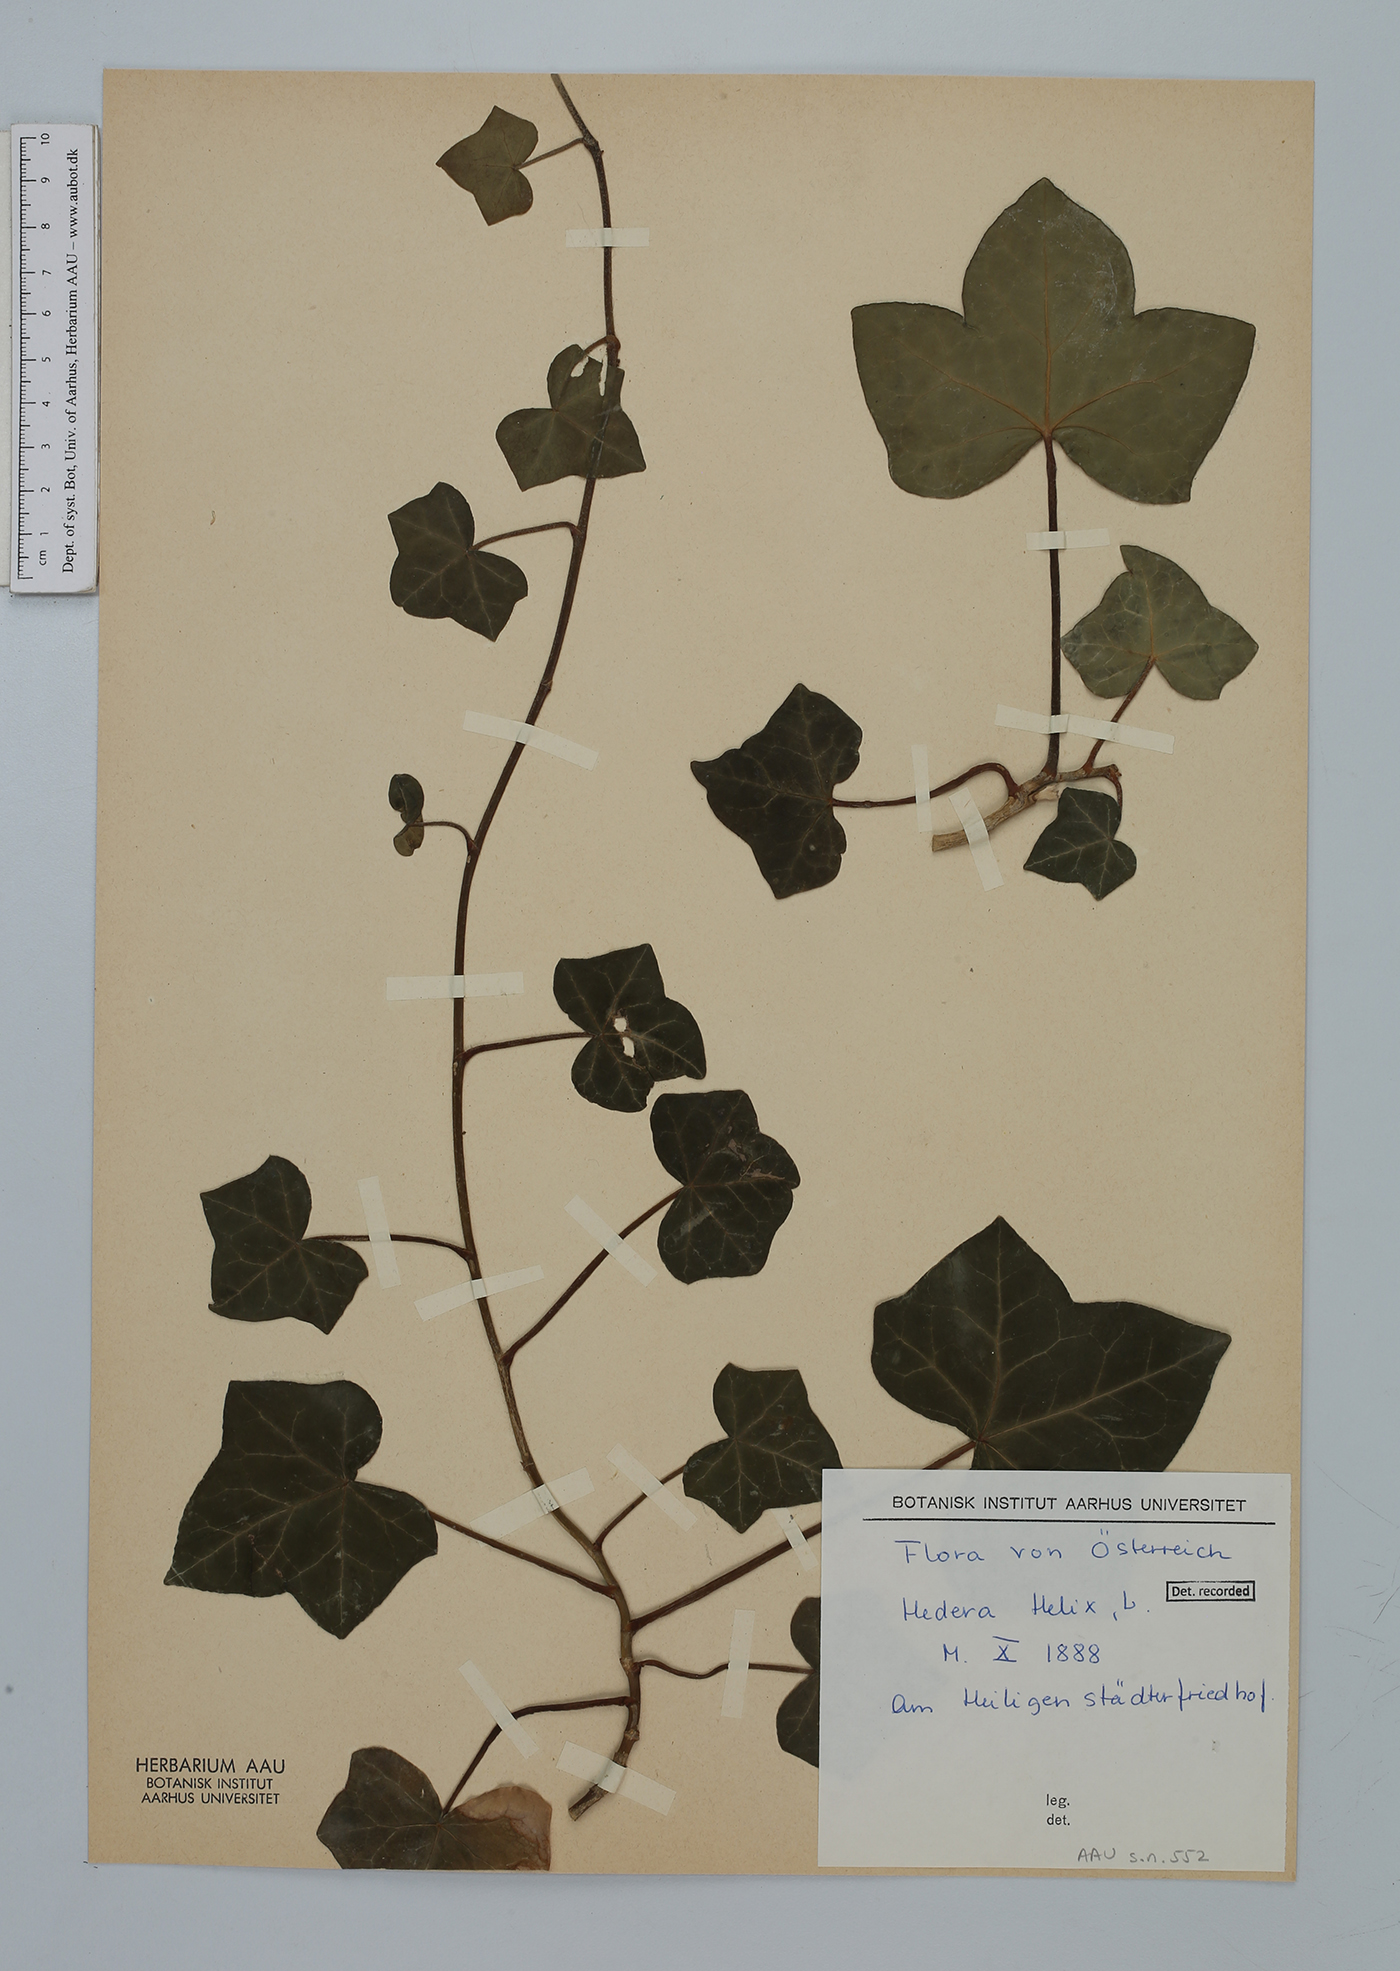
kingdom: Plantae
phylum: Tracheophyta
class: Magnoliopsida
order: Apiales
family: Araliaceae
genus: Hedera
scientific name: Hedera helix
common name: Ivy
